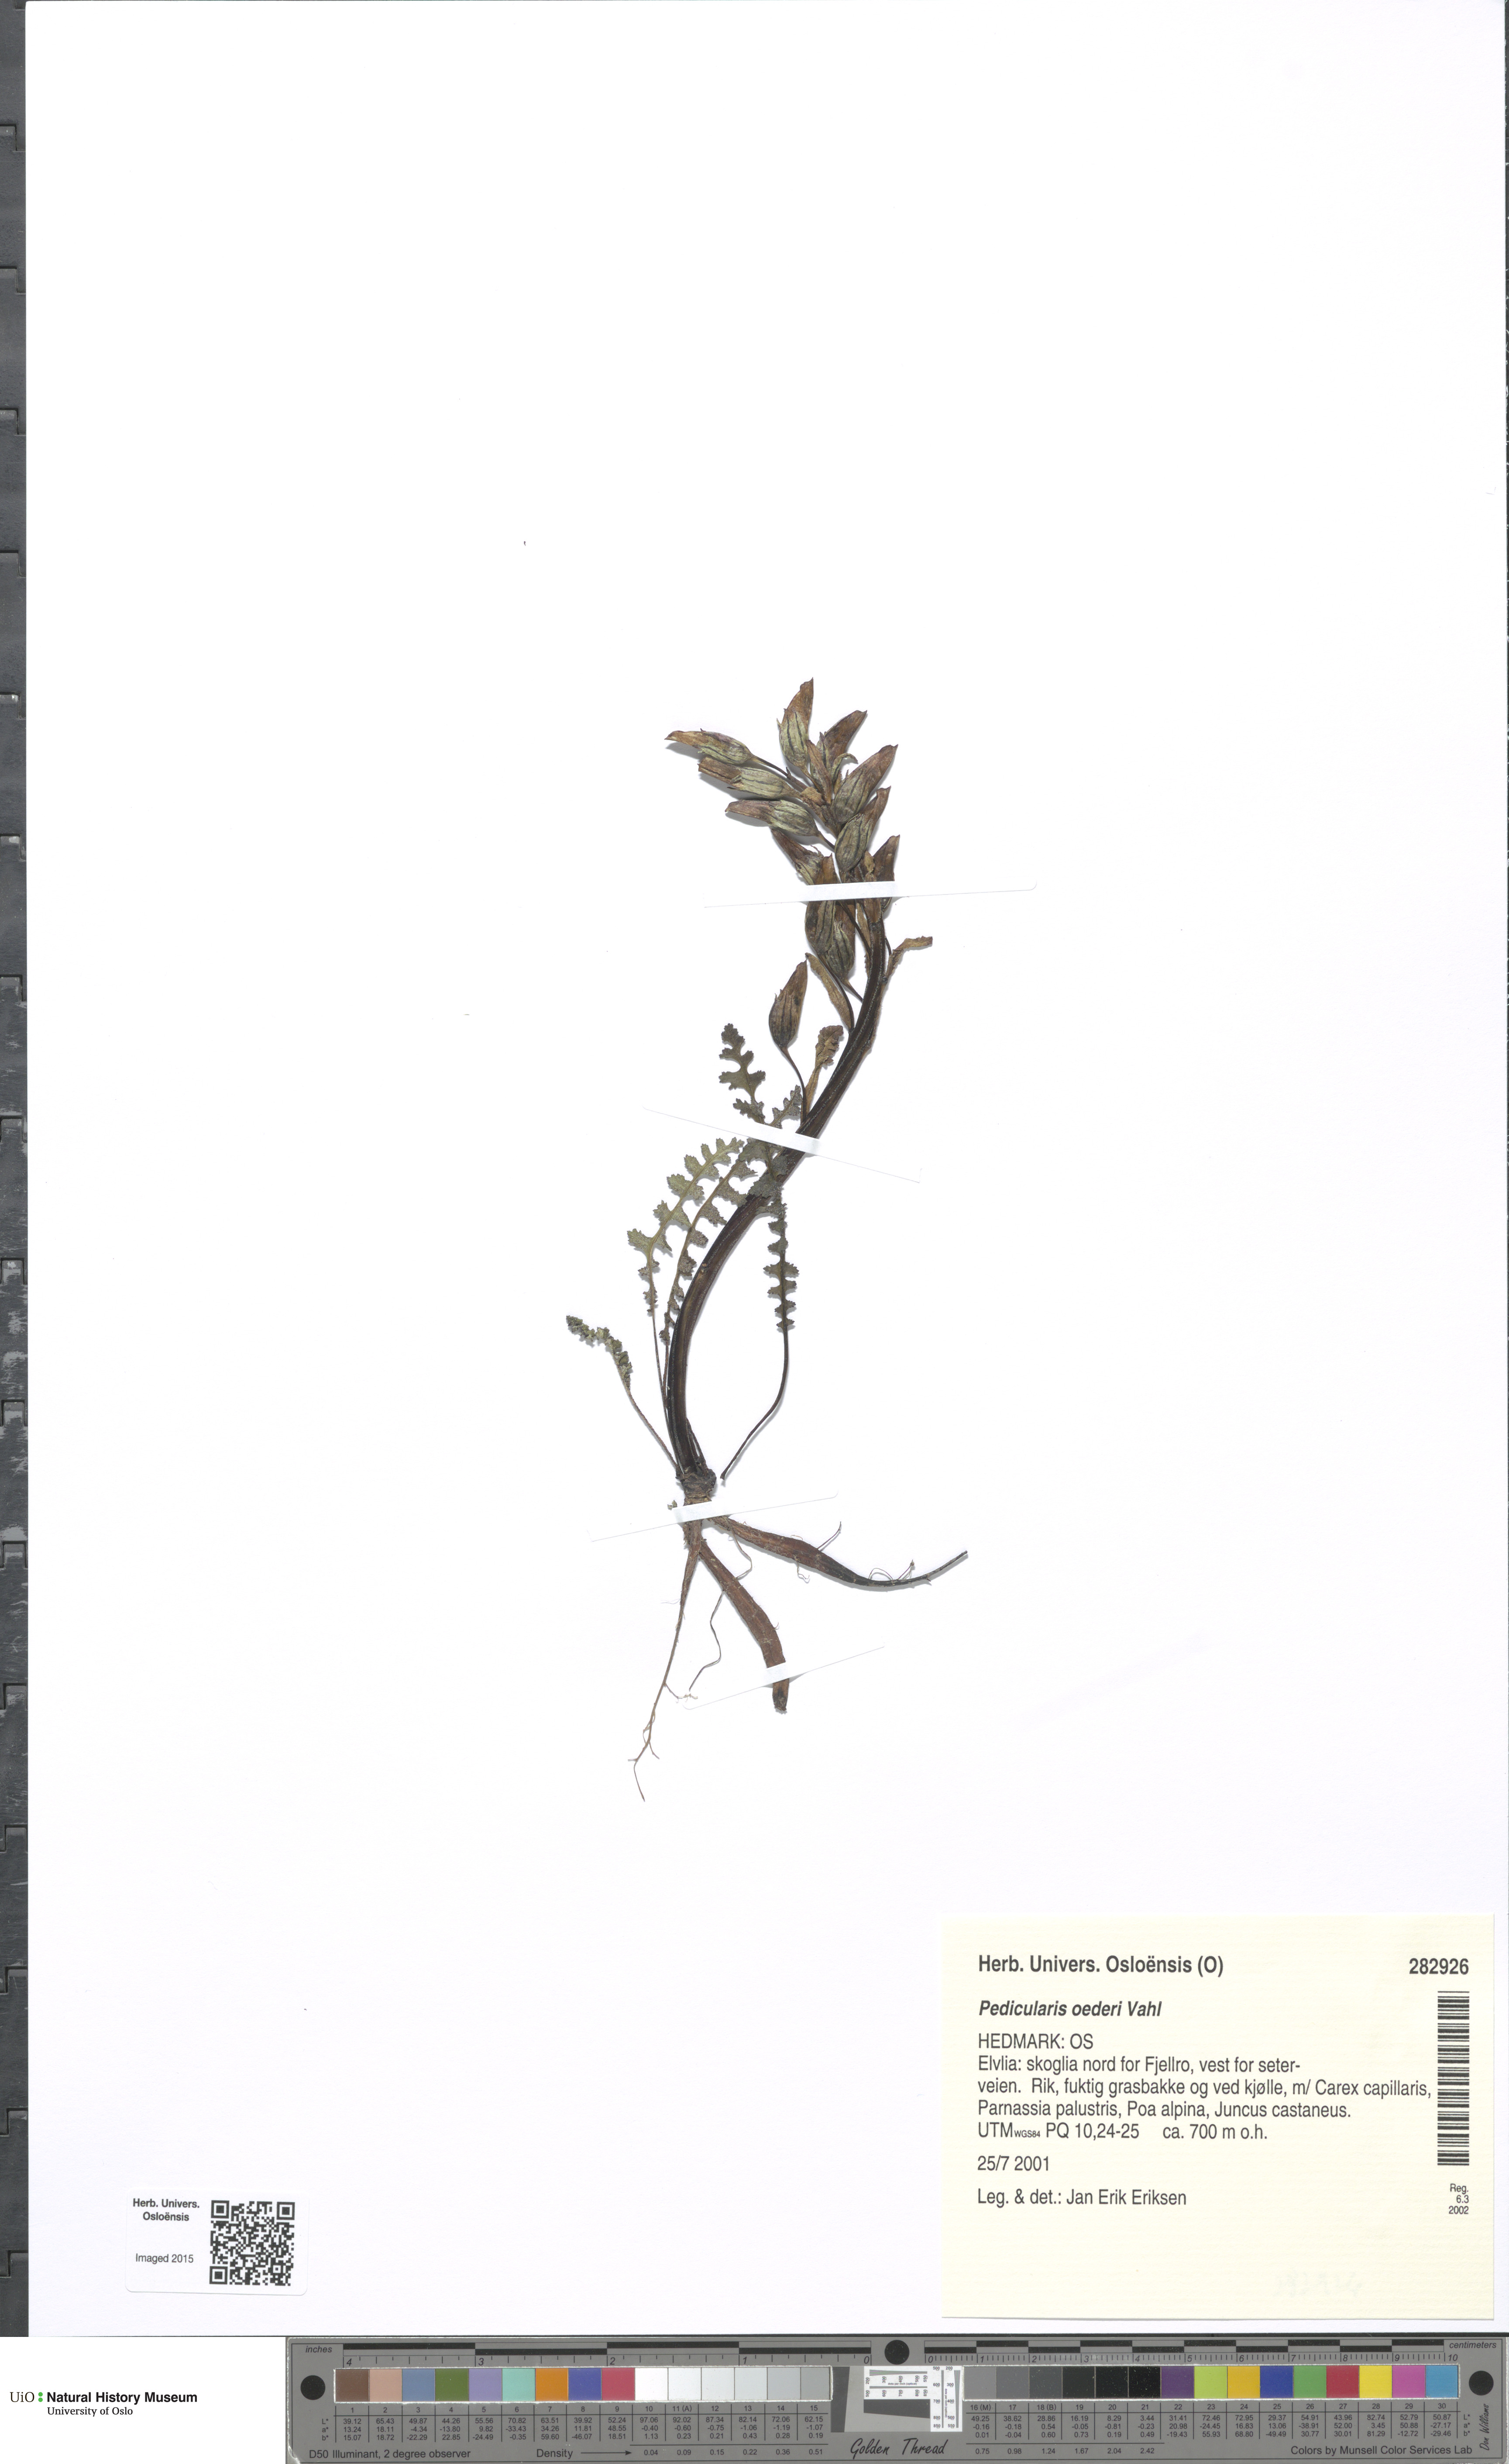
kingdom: Plantae
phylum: Tracheophyta
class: Magnoliopsida
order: Lamiales
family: Orobanchaceae
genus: Pedicularis
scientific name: Pedicularis oederi
